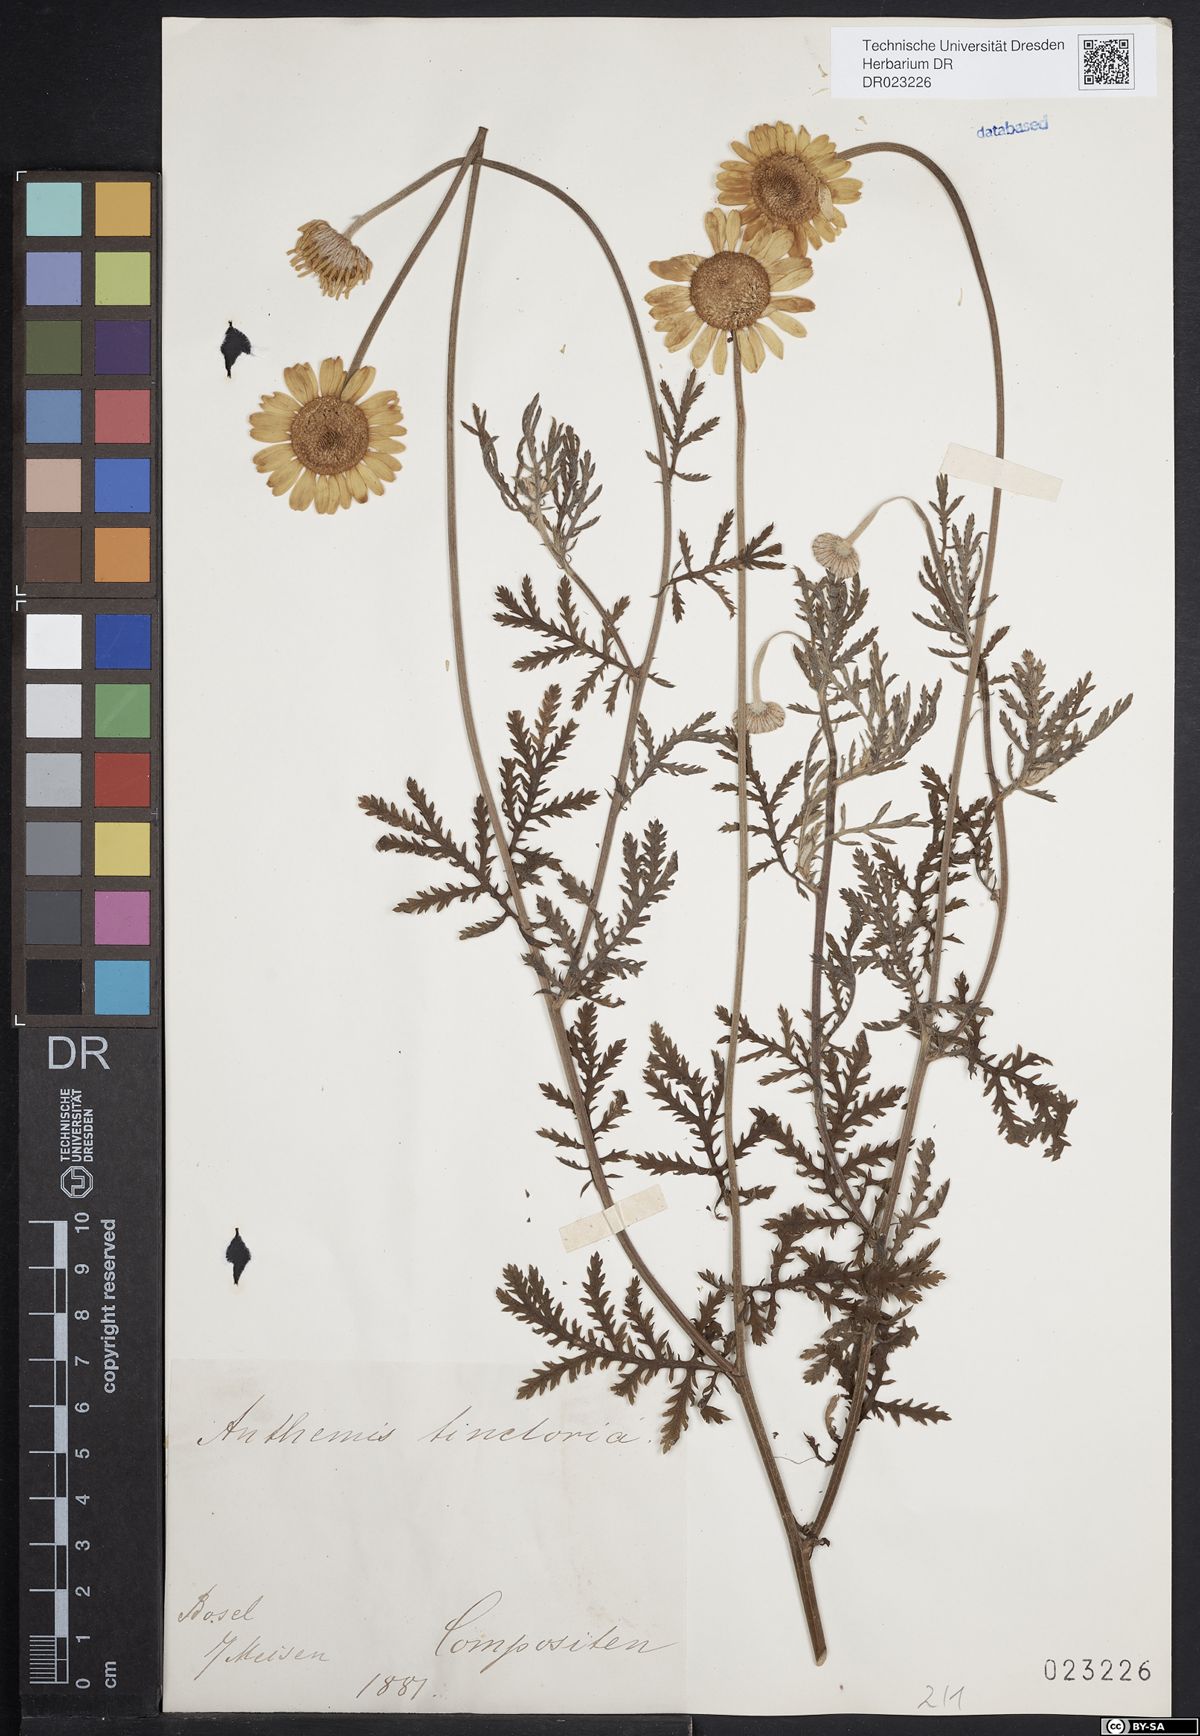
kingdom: Plantae
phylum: Tracheophyta
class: Magnoliopsida
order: Asterales
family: Asteraceae
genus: Cota
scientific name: Cota tinctoria
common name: Golden chamomile
